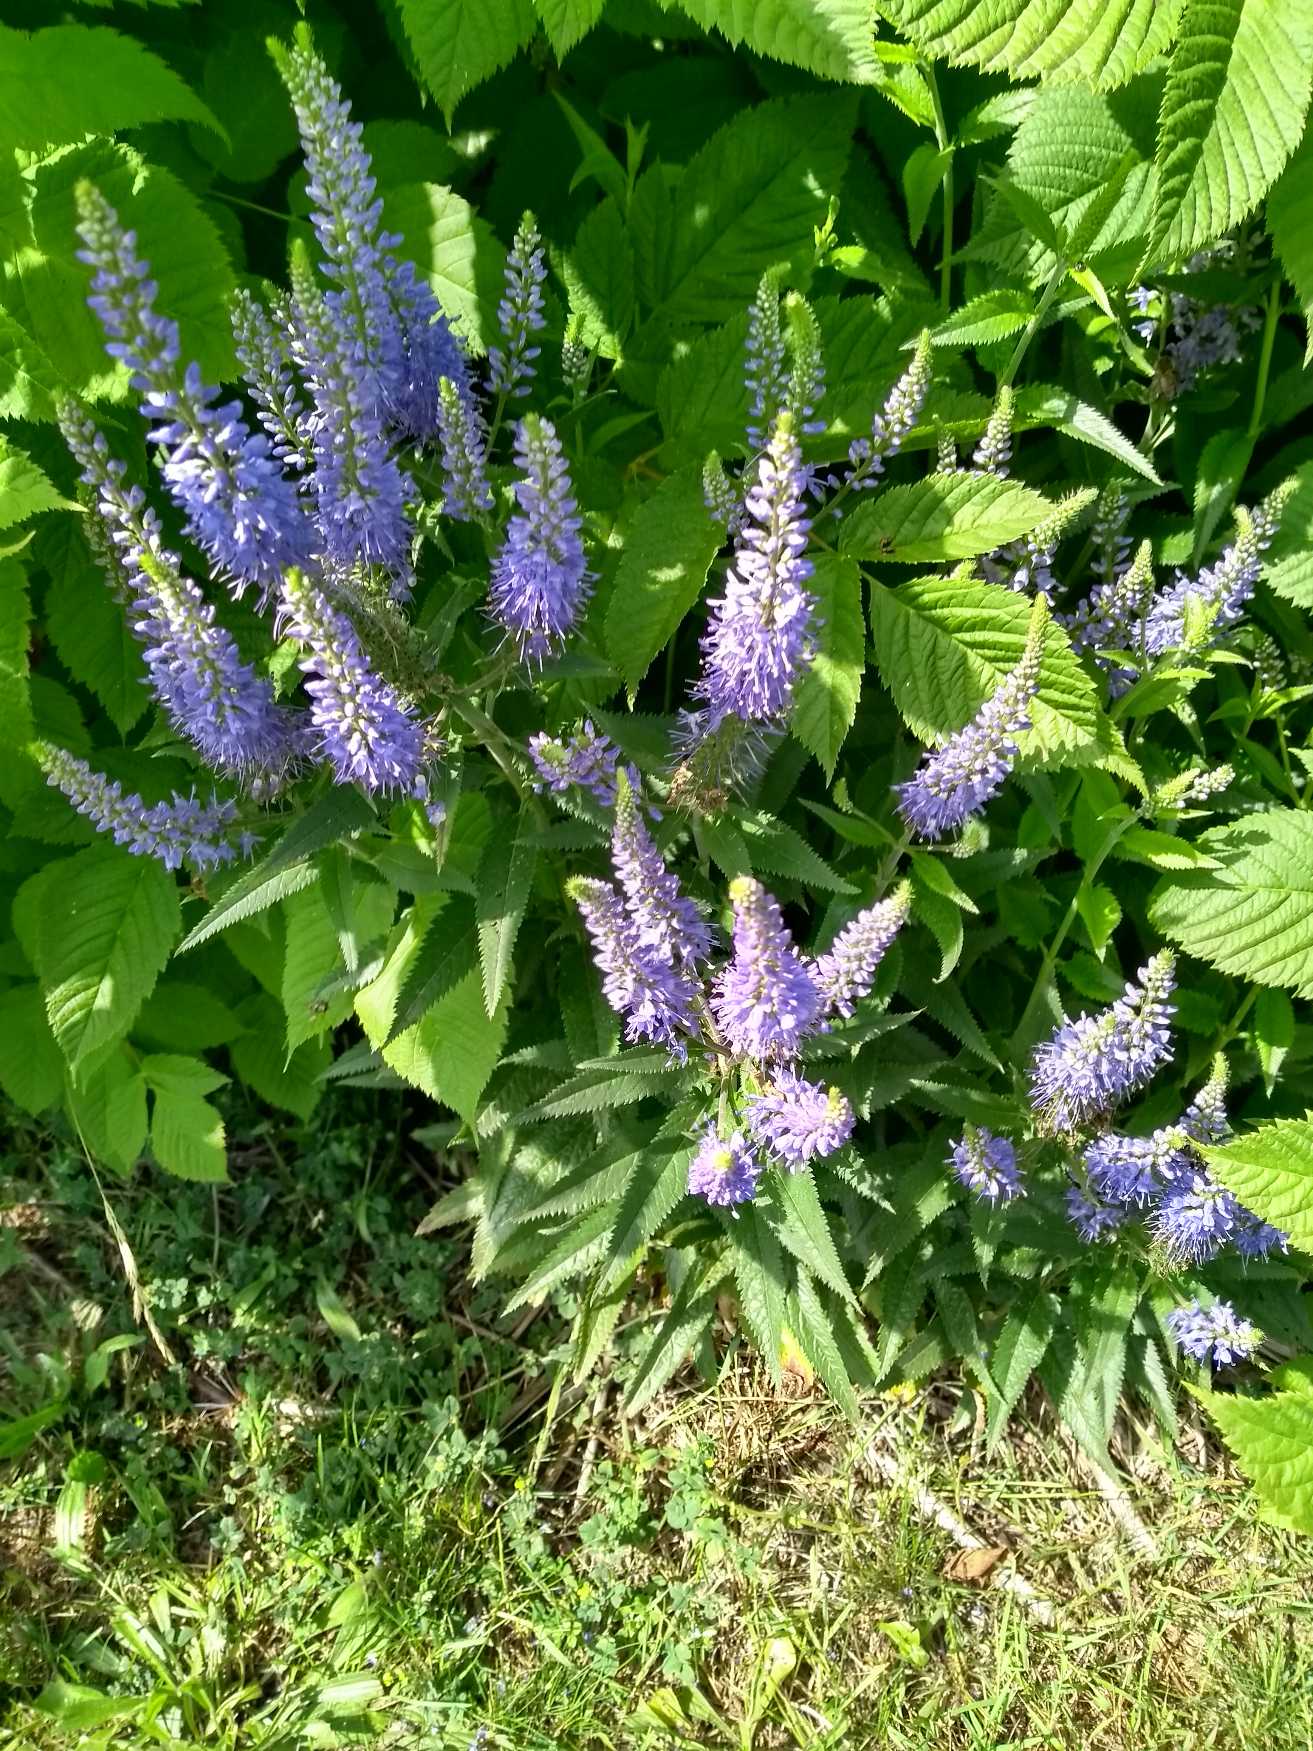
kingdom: Plantae
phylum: Tracheophyta
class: Magnoliopsida
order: Lamiales
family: Plantaginaceae
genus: Veronica
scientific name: Veronica
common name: Ærenprisslægten
